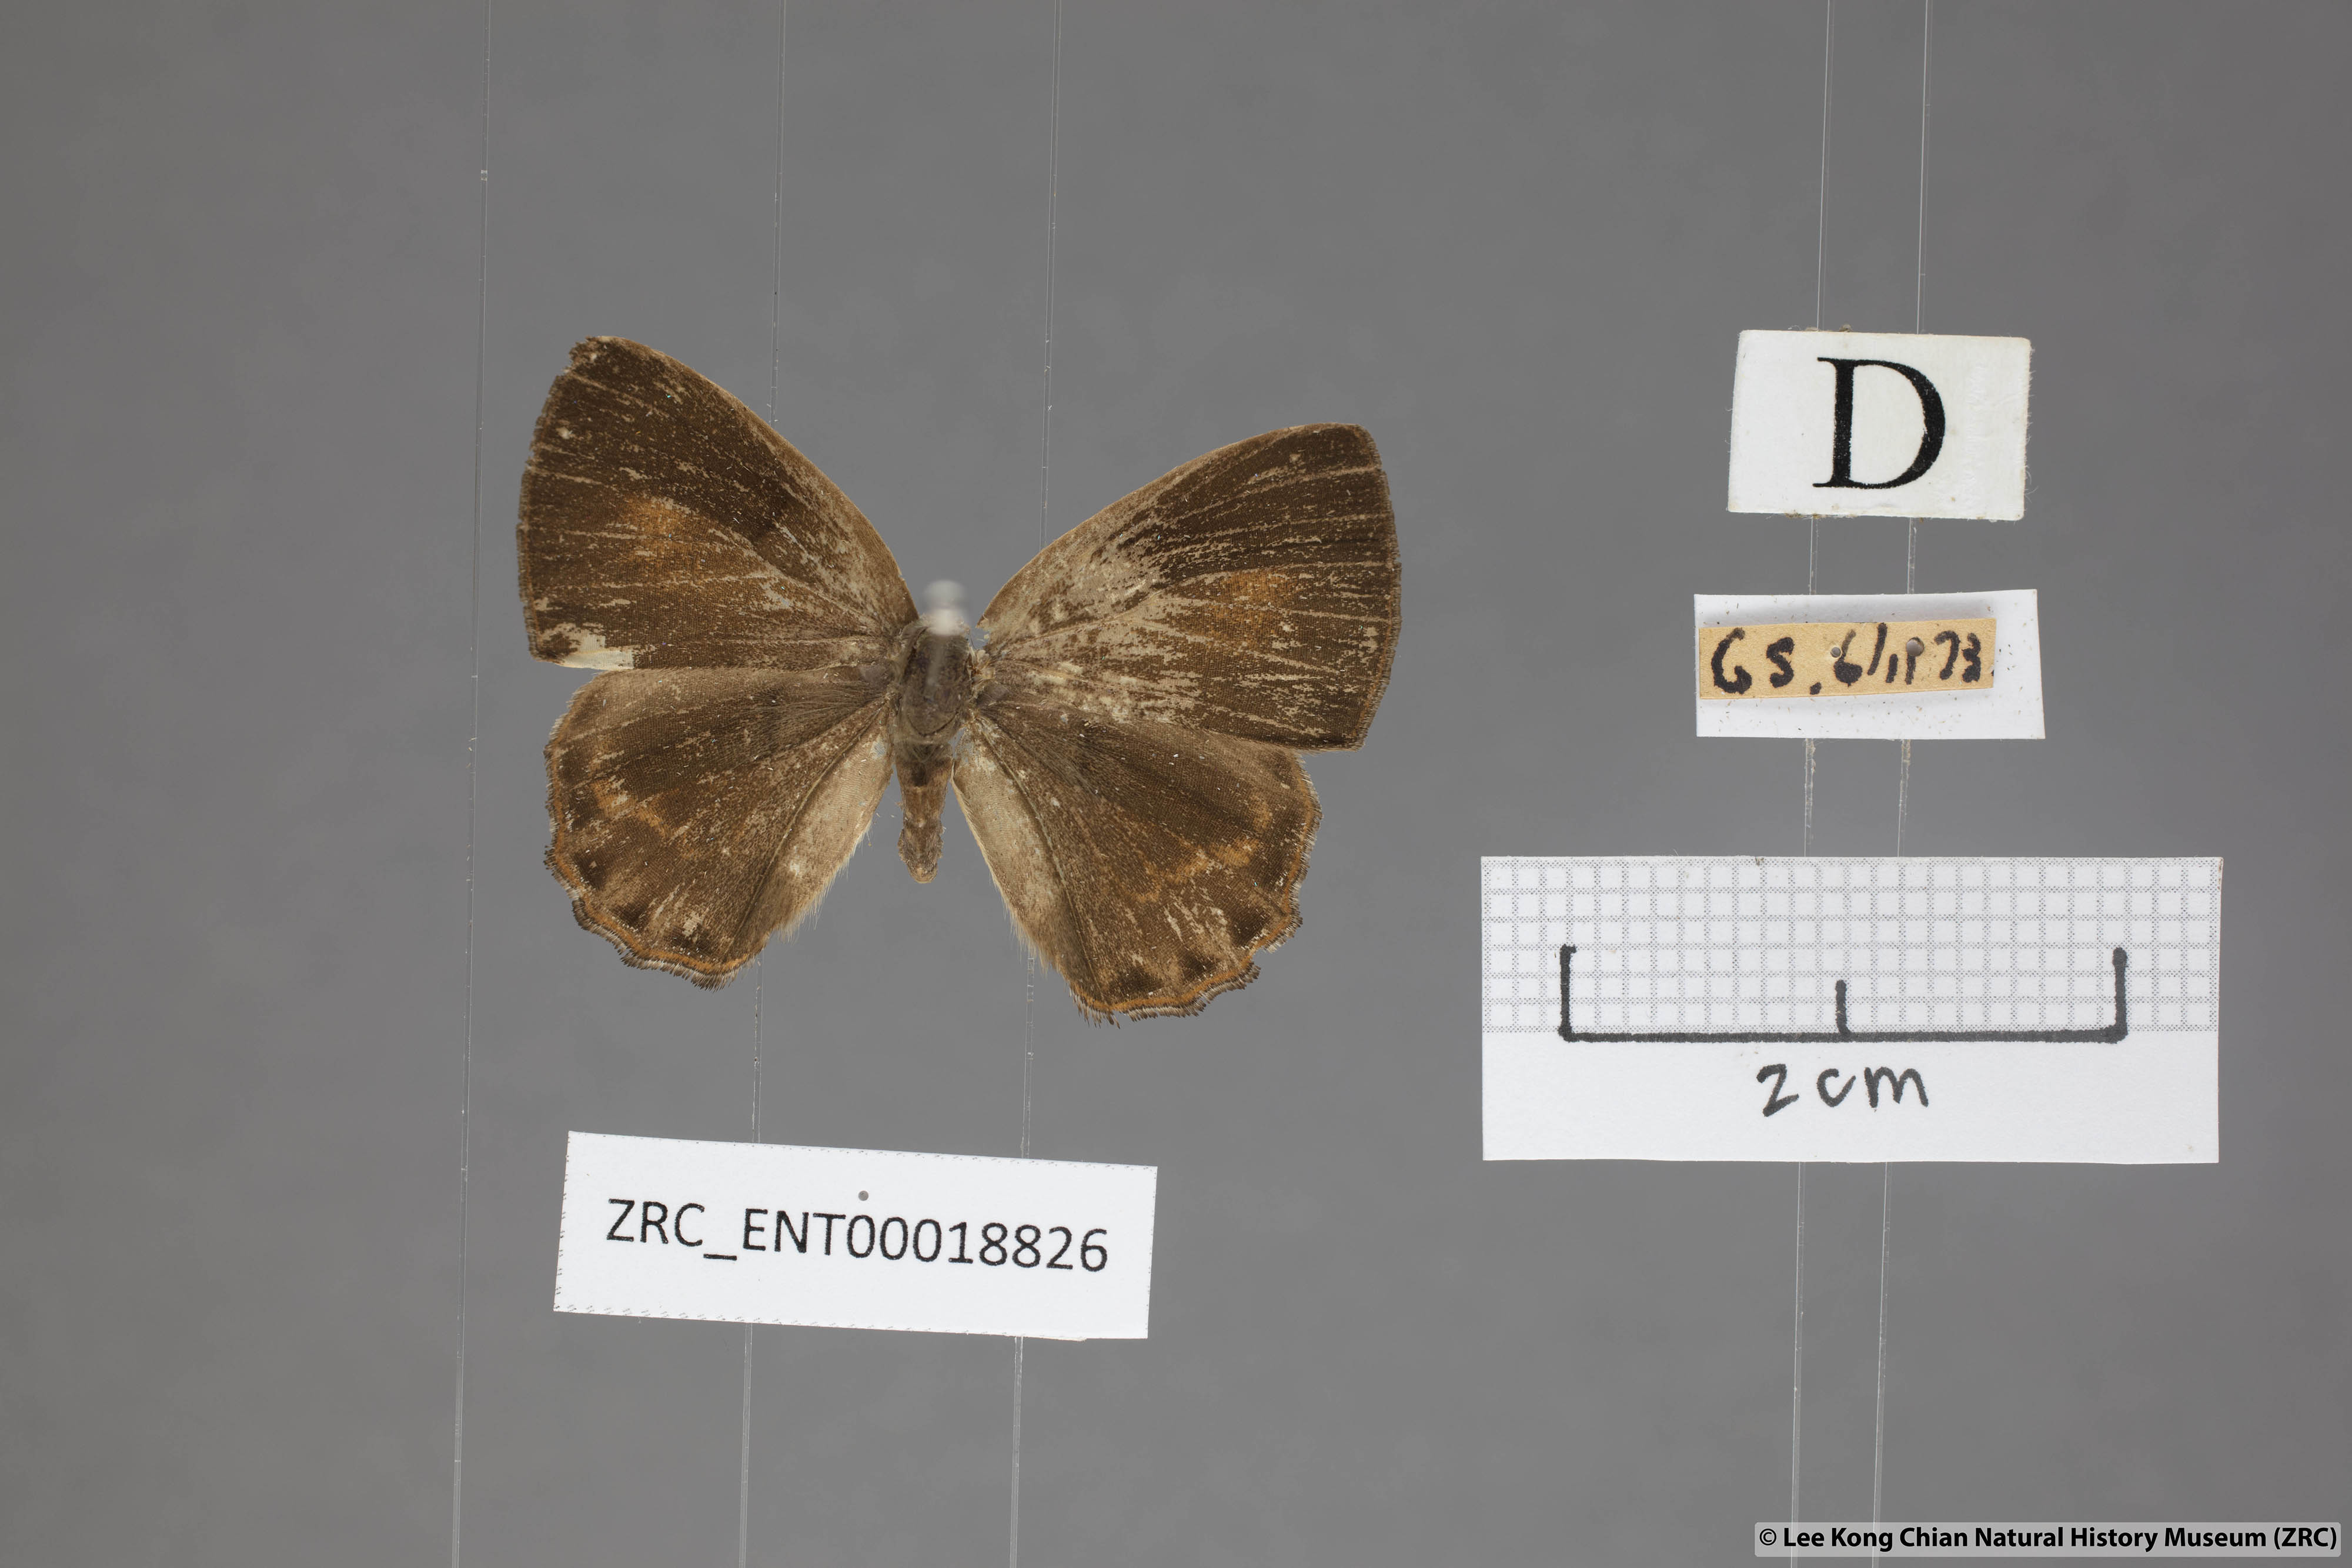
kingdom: Animalia
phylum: Arthropoda
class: Insecta
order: Lepidoptera
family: Lycaenidae
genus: Poritia
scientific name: Poritia philota
